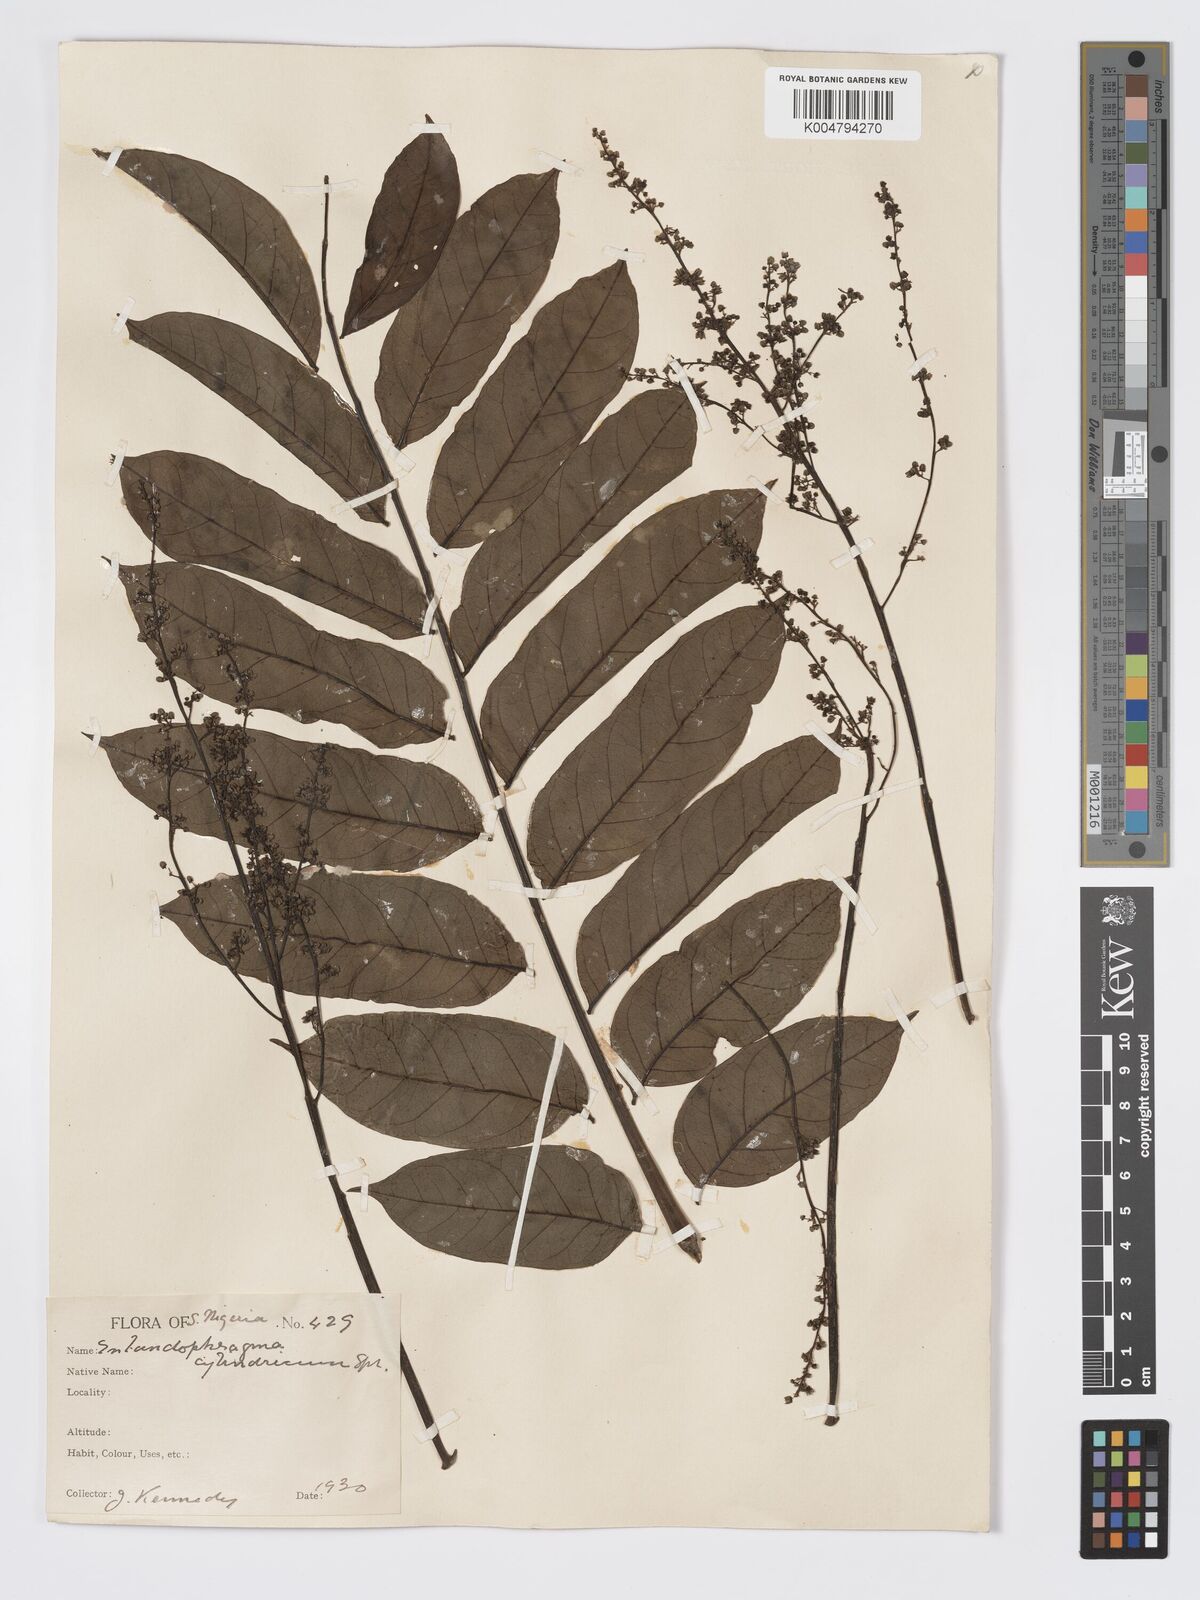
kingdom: Plantae
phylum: Tracheophyta
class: Magnoliopsida
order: Sapindales
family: Meliaceae
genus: Entandrophragma
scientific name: Entandrophragma cylindricum
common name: Sapele
